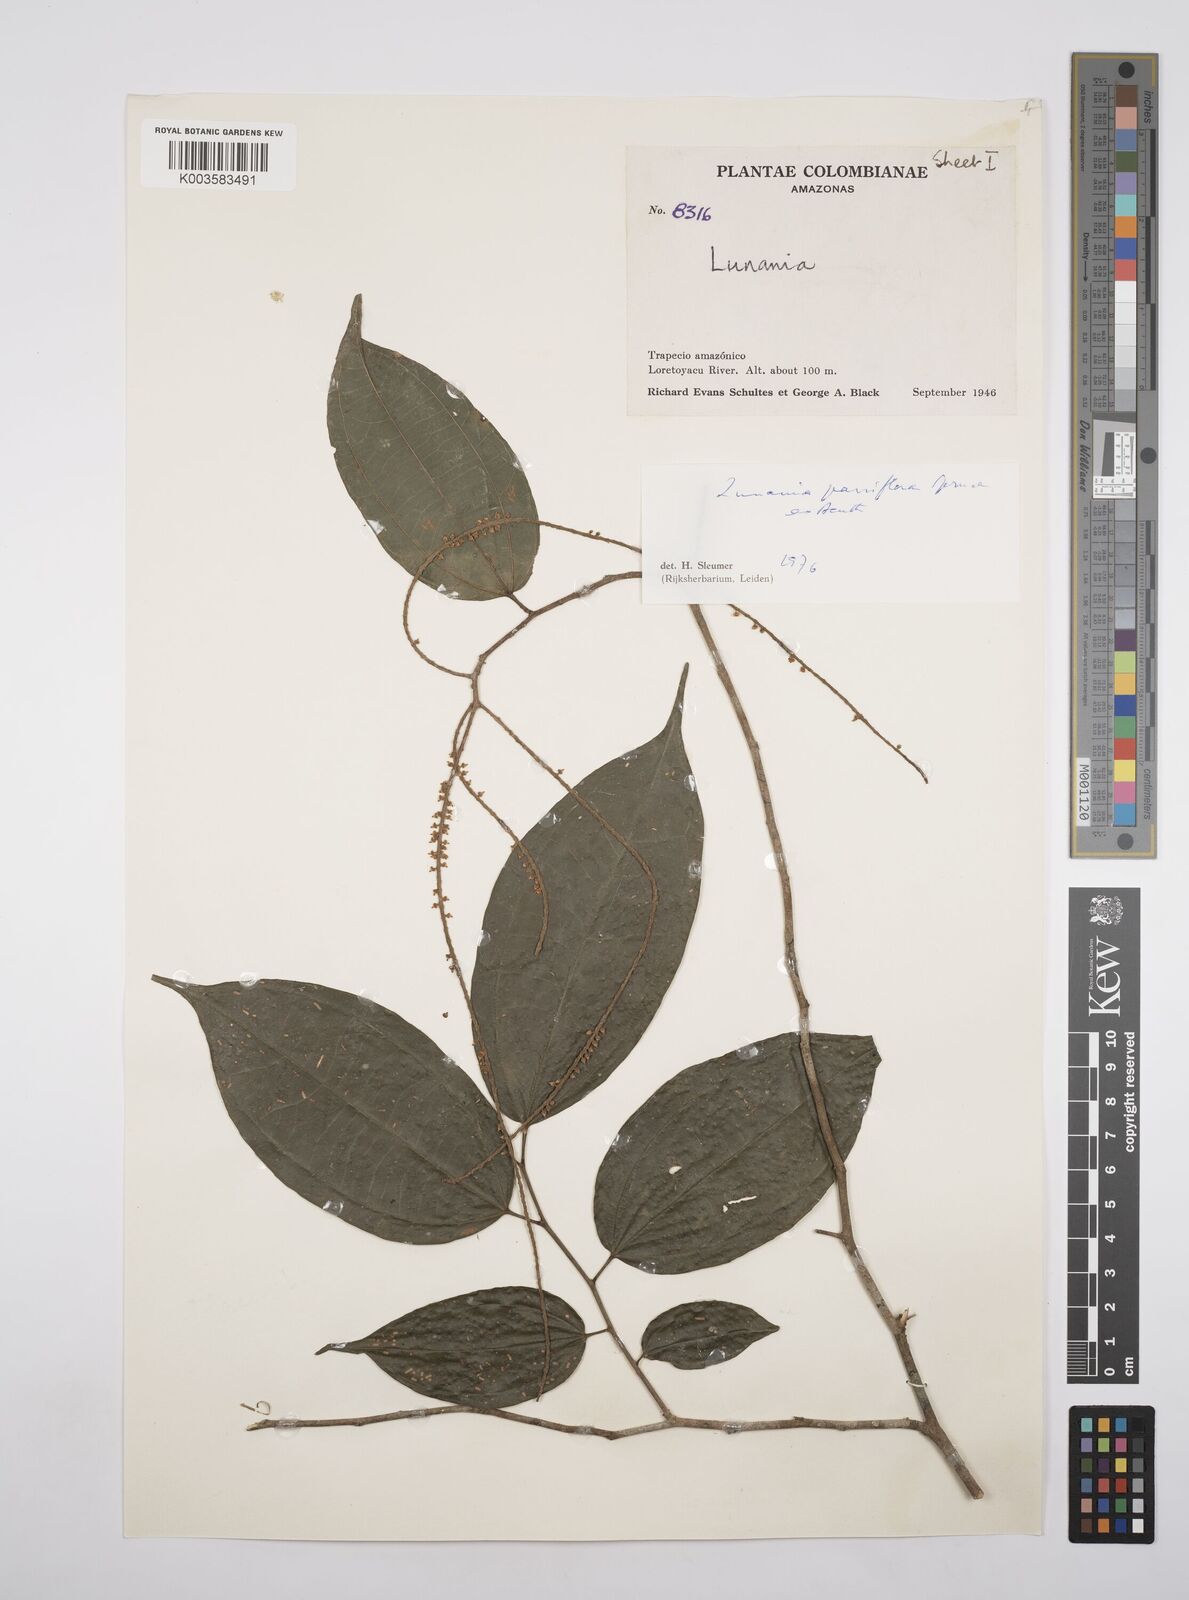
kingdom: Plantae
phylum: Tracheophyta
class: Magnoliopsida
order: Malpighiales
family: Salicaceae
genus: Lunania
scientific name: Lunania parviflora
